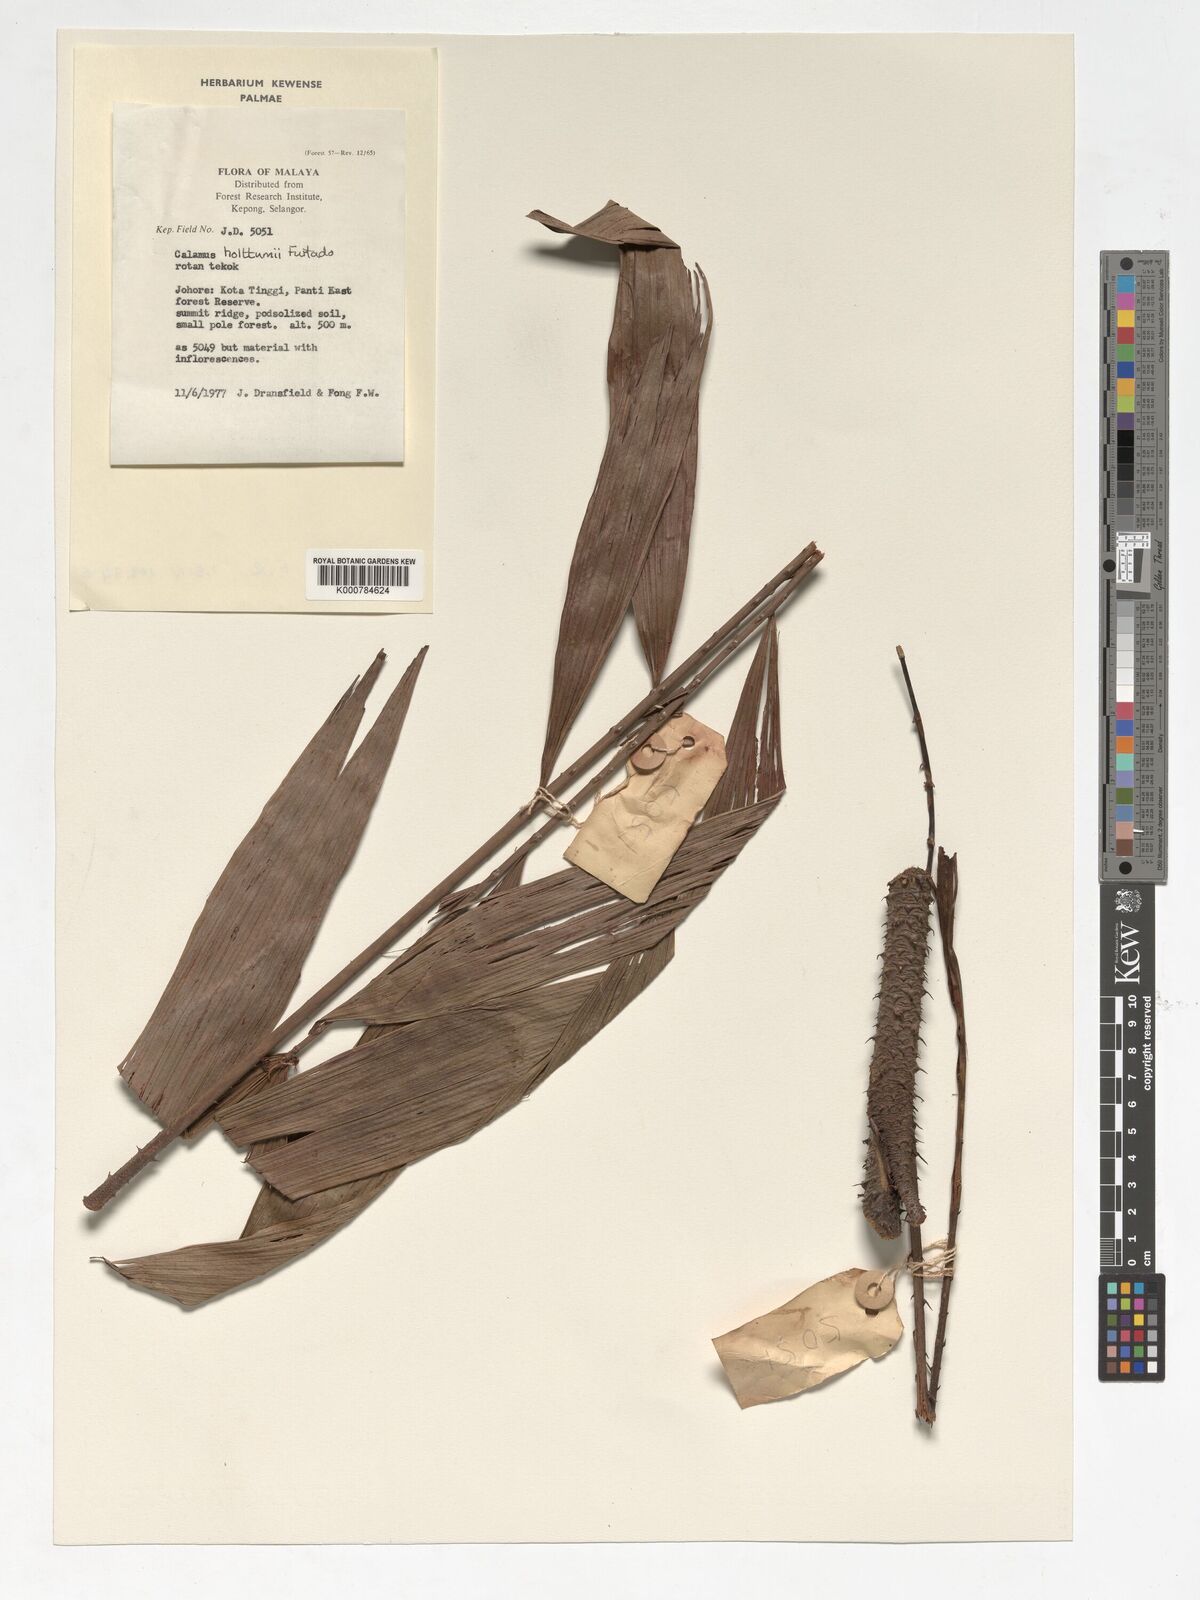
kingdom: Plantae
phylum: Tracheophyta
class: Liliopsida
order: Arecales
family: Arecaceae
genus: Calamus
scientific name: Calamus holttumii
